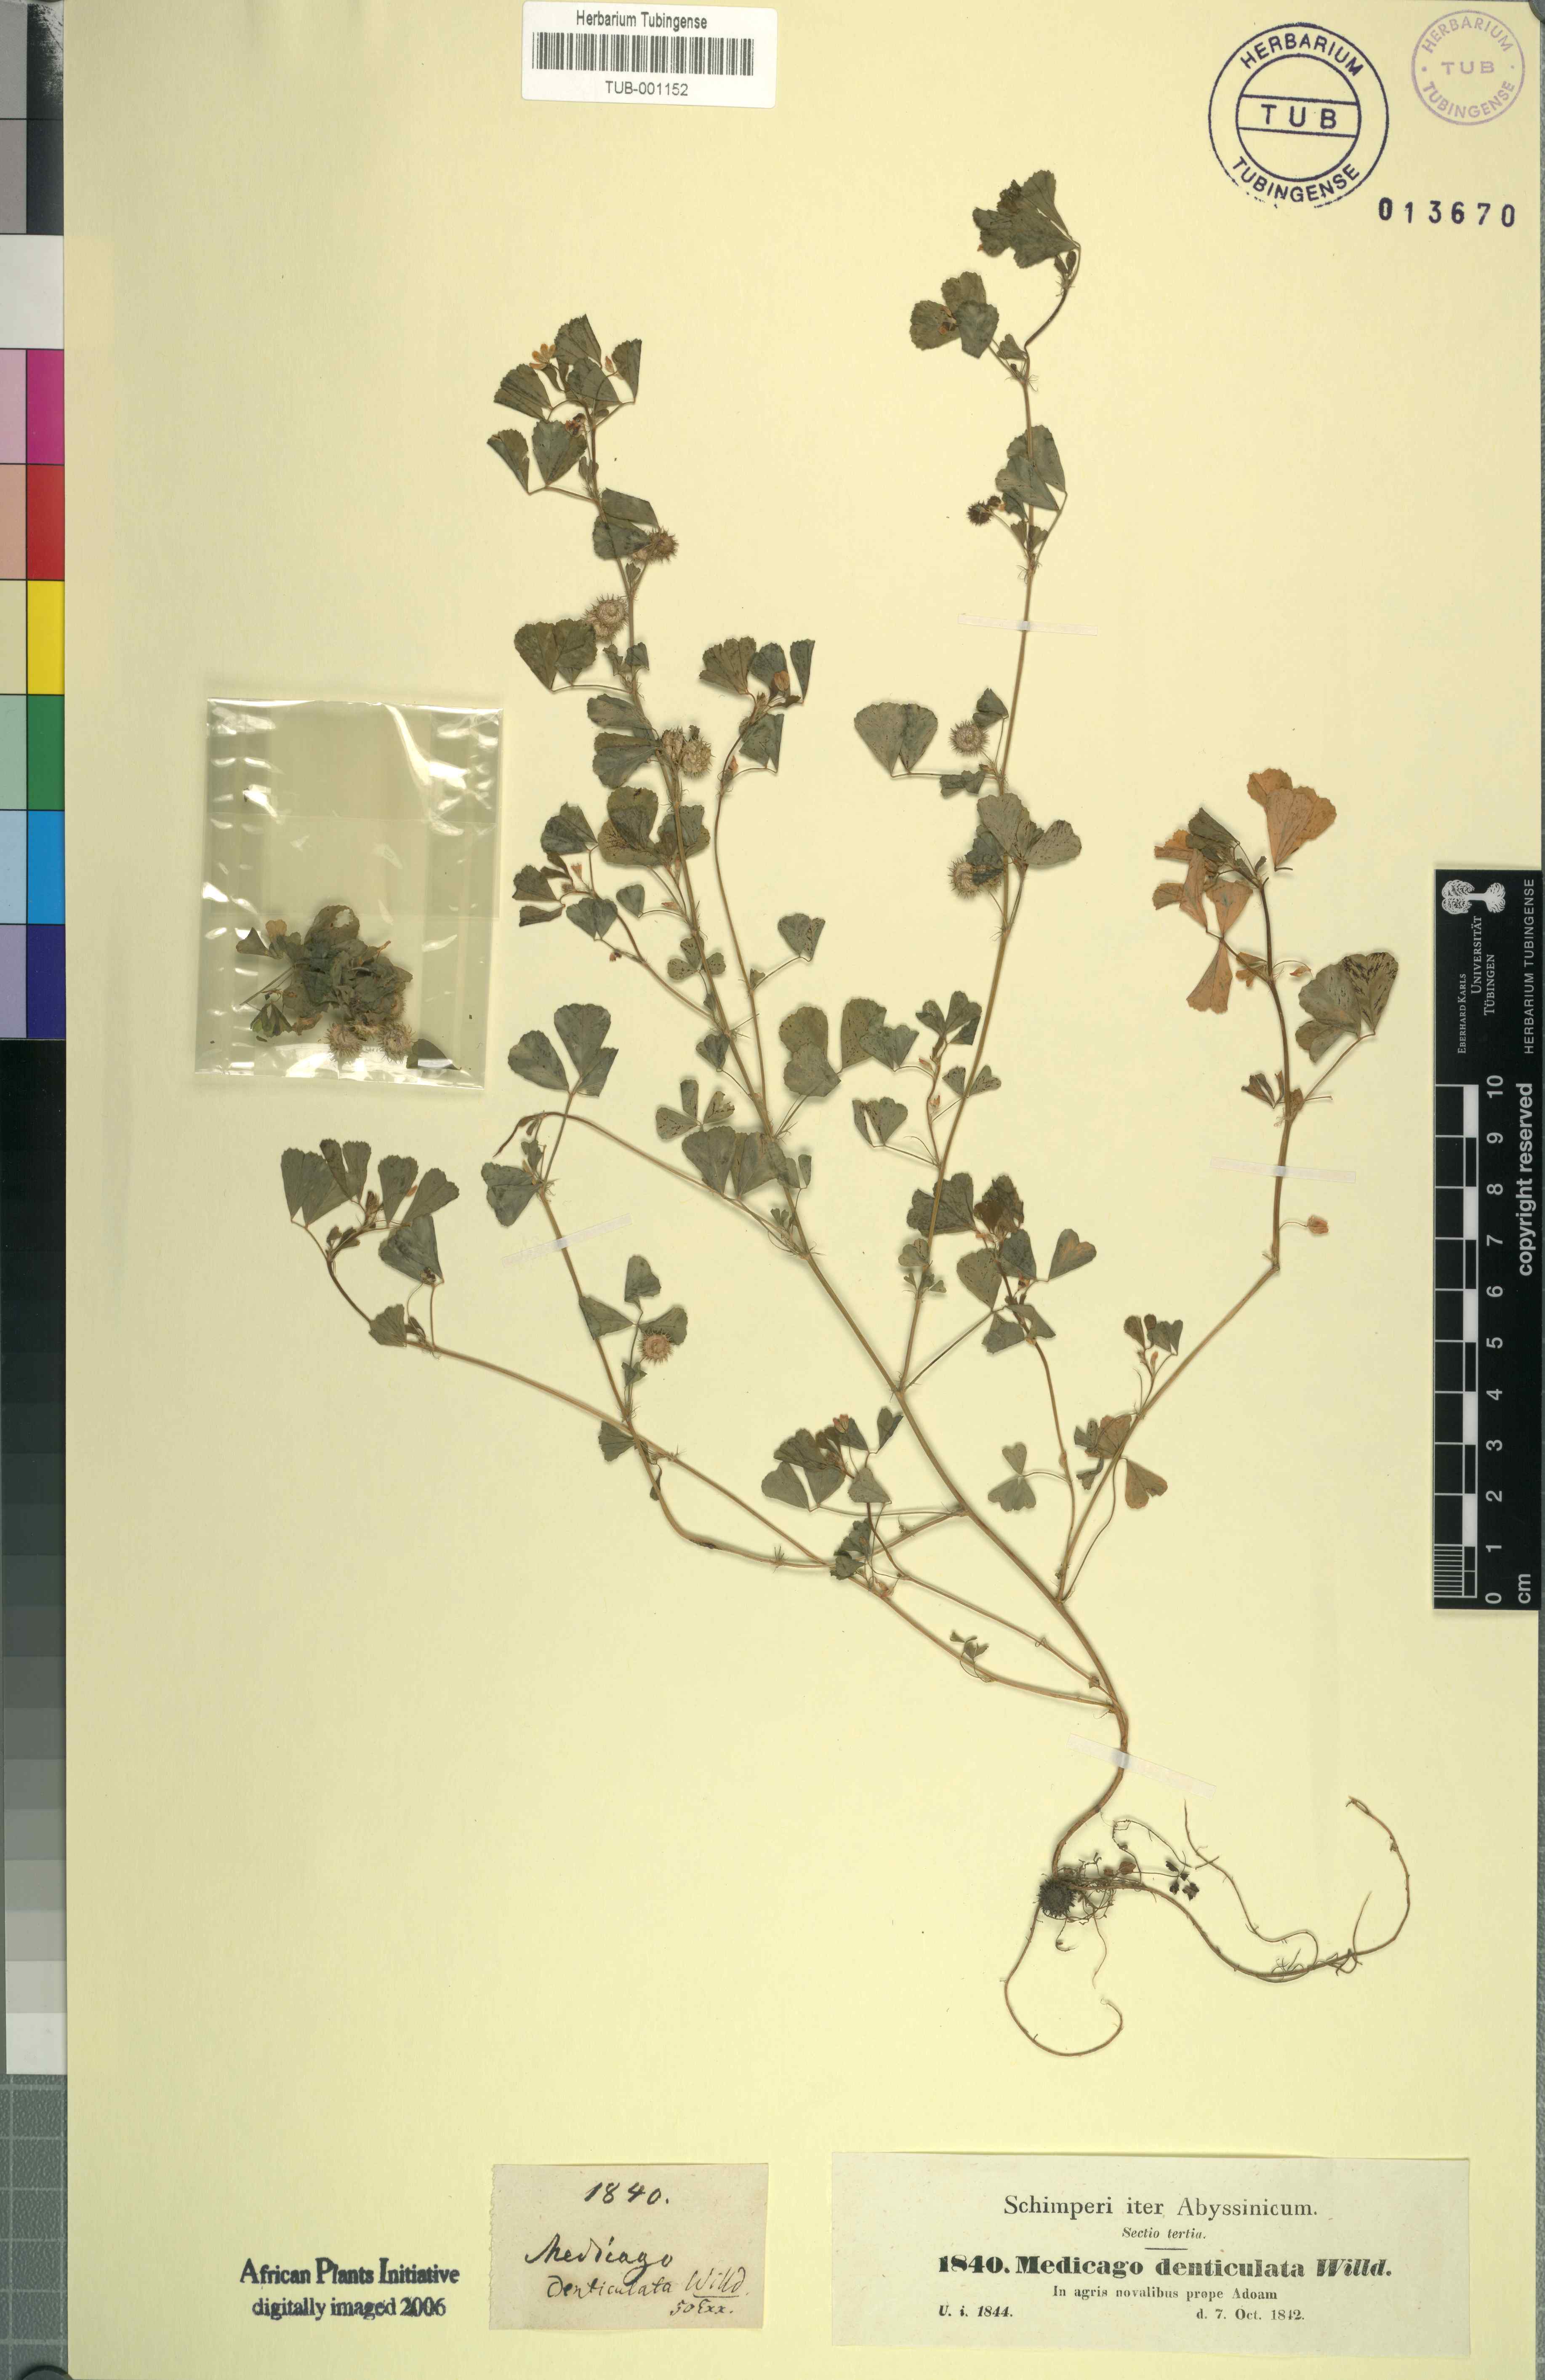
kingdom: Plantae
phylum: Tracheophyta
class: Magnoliopsida
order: Fabales
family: Fabaceae
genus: Medicago
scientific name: Medicago polymorpha
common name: Burclover
